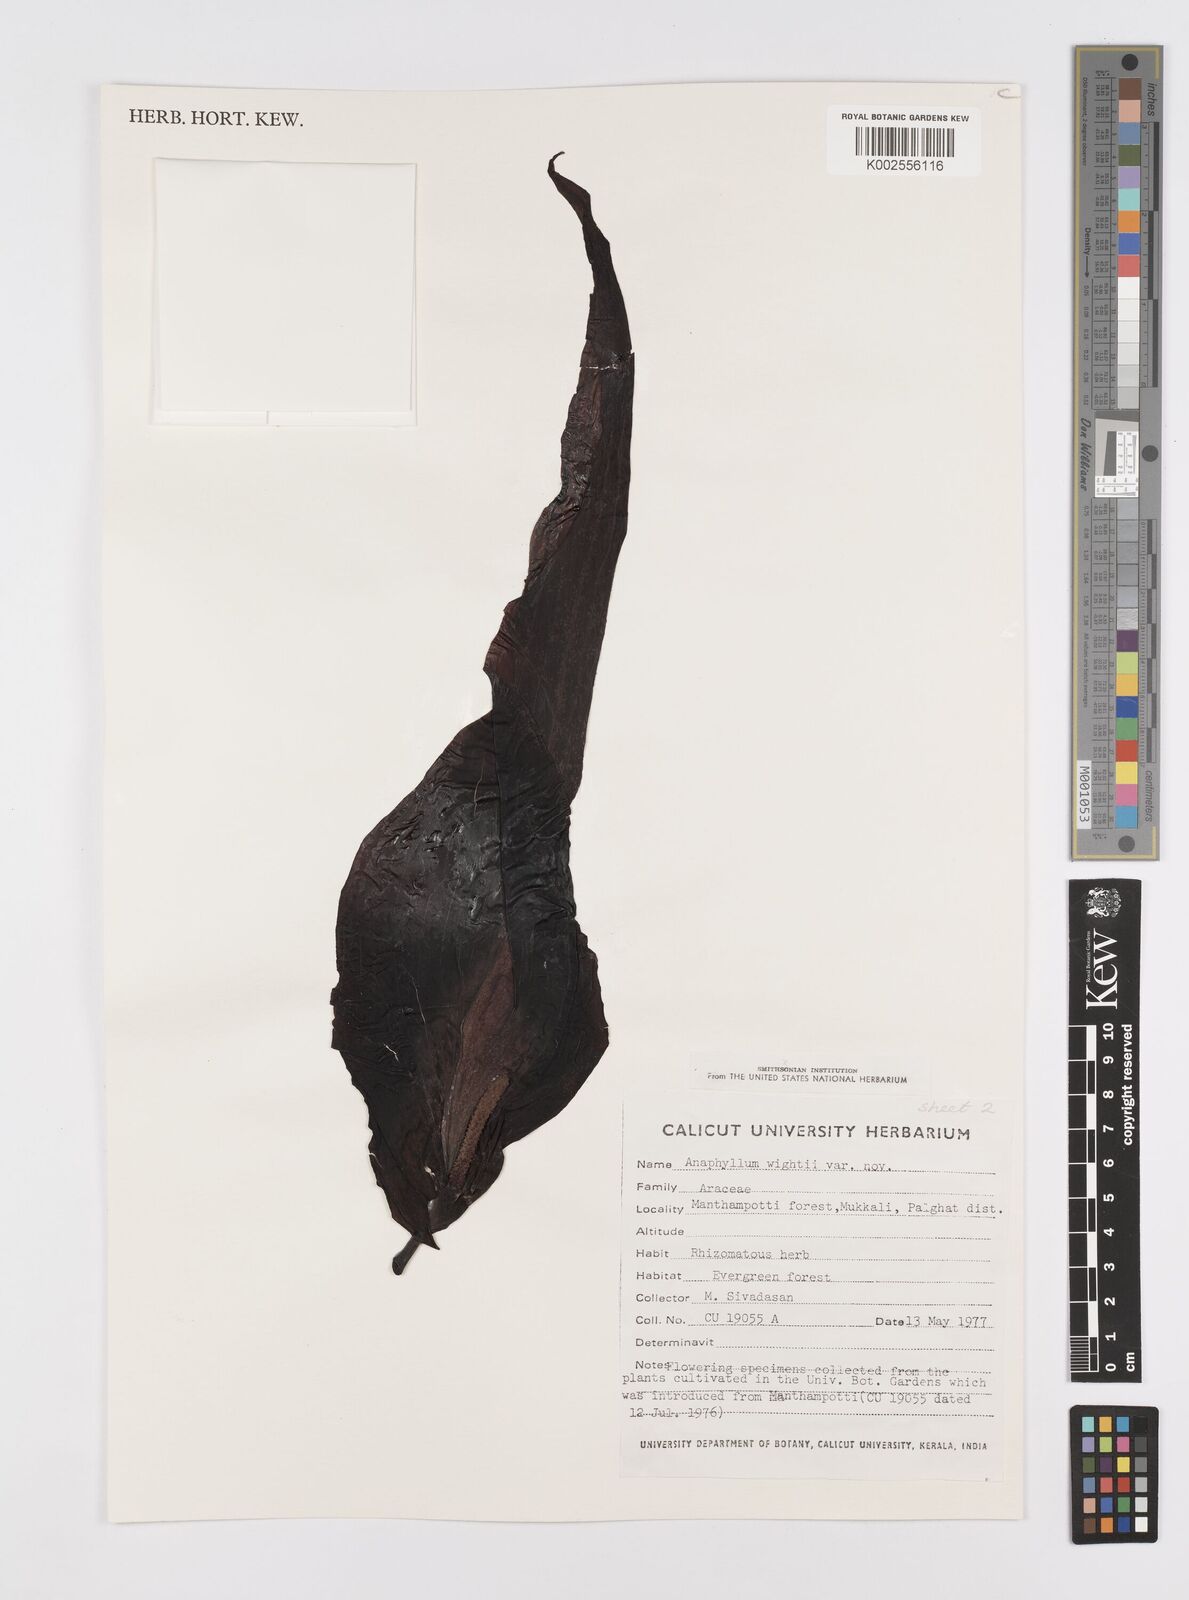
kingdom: Plantae
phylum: Tracheophyta
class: Liliopsida
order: Alismatales
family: Araceae
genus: Anaphyllum
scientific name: Anaphyllum wightii
